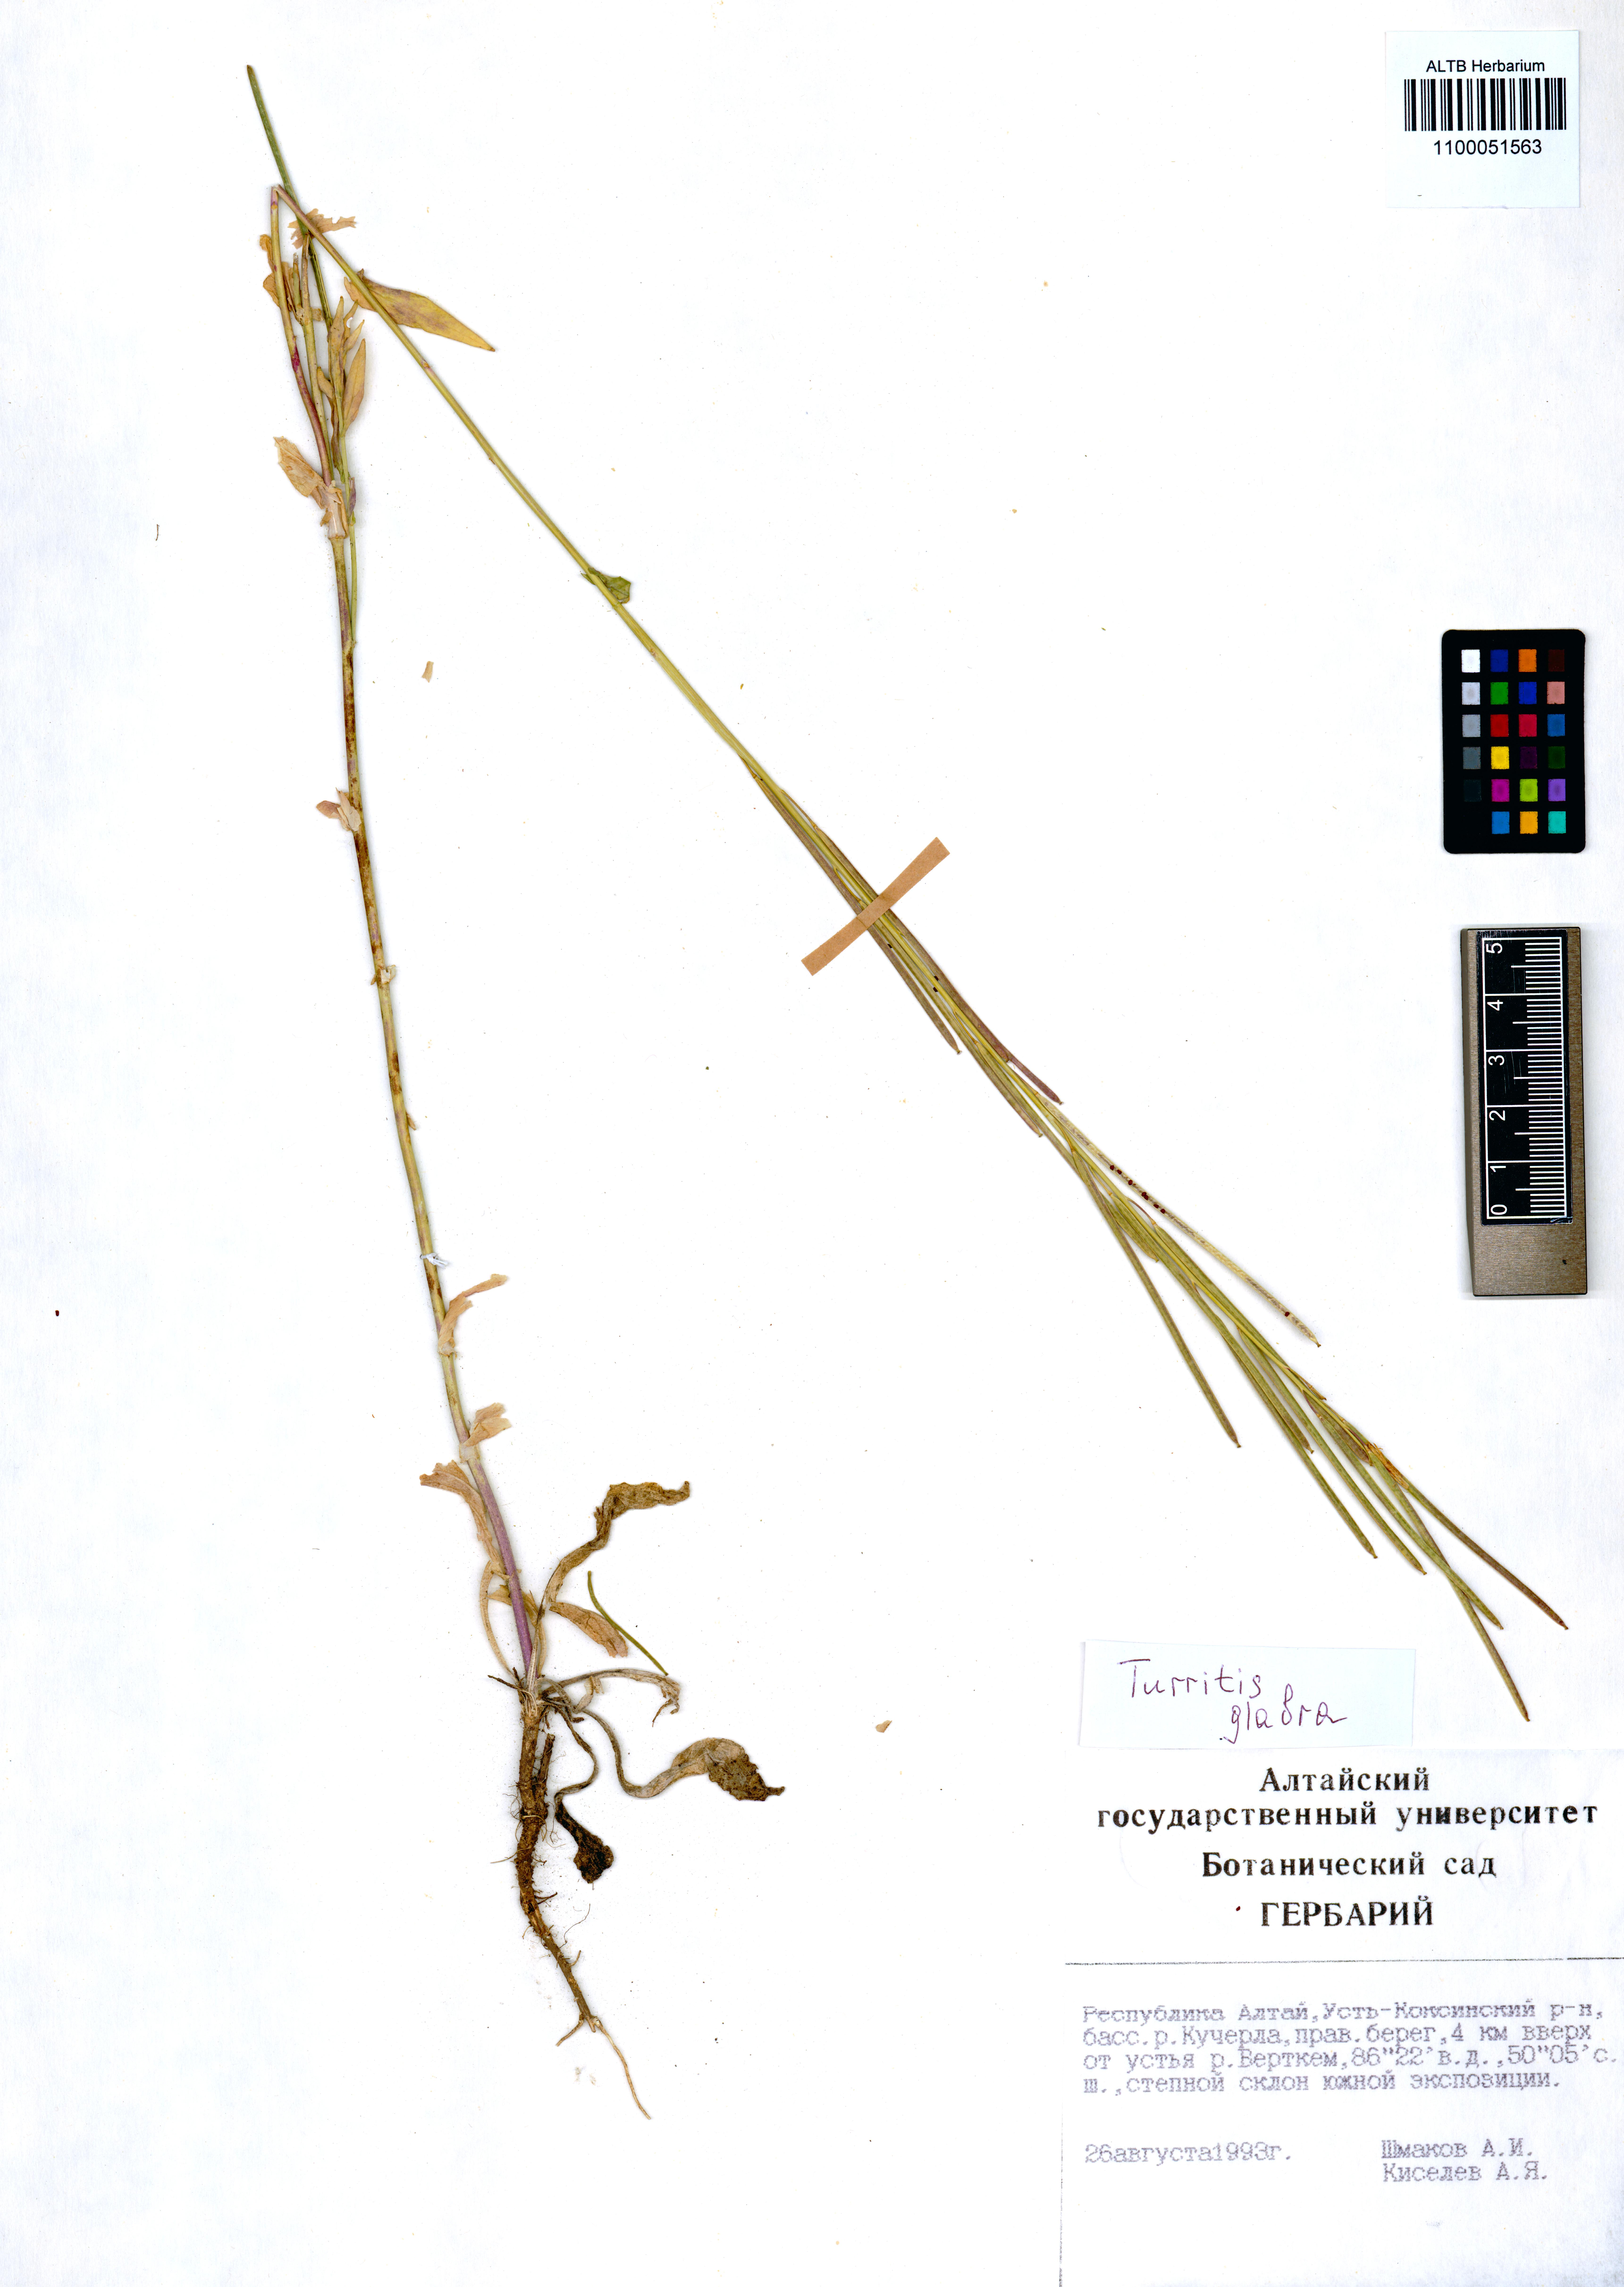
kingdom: Plantae
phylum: Tracheophyta
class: Magnoliopsida
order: Brassicales
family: Brassicaceae
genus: Turritis
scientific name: Turritis glabra
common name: Tower rockcress
